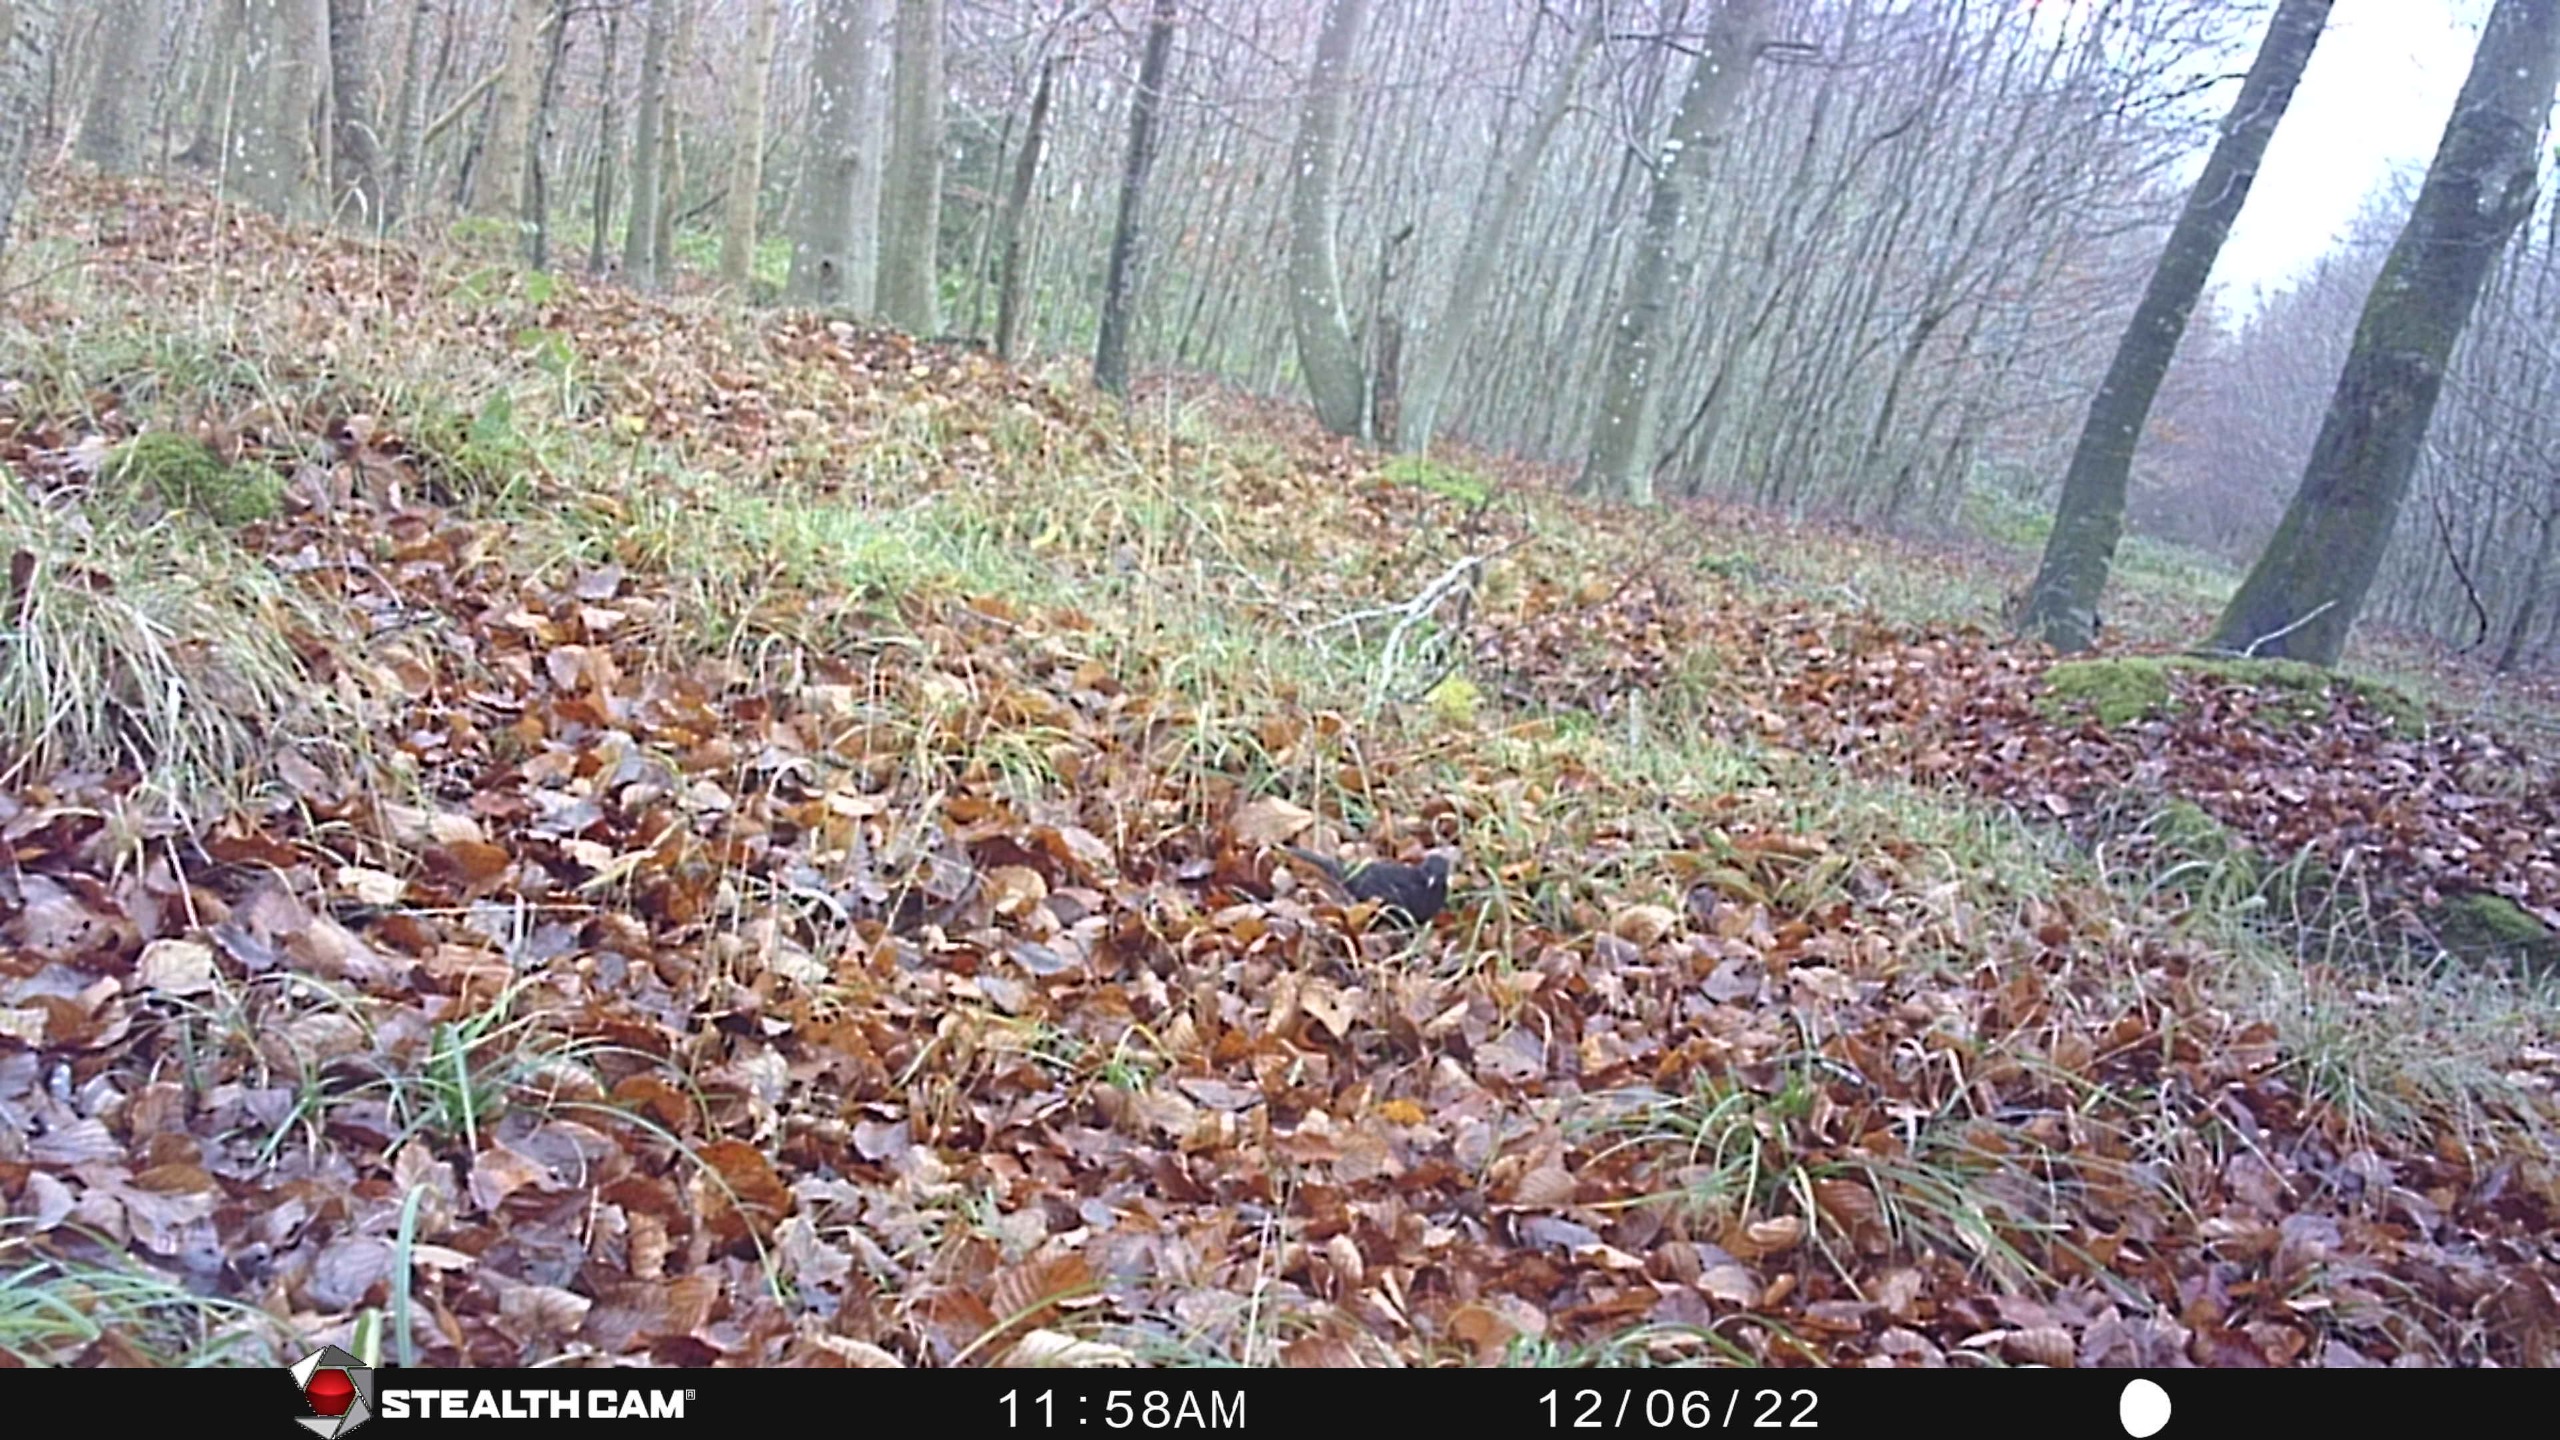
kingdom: Animalia
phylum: Chordata
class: Aves
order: Passeriformes
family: Turdidae
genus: Turdus
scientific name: Turdus merula
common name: Solsort
